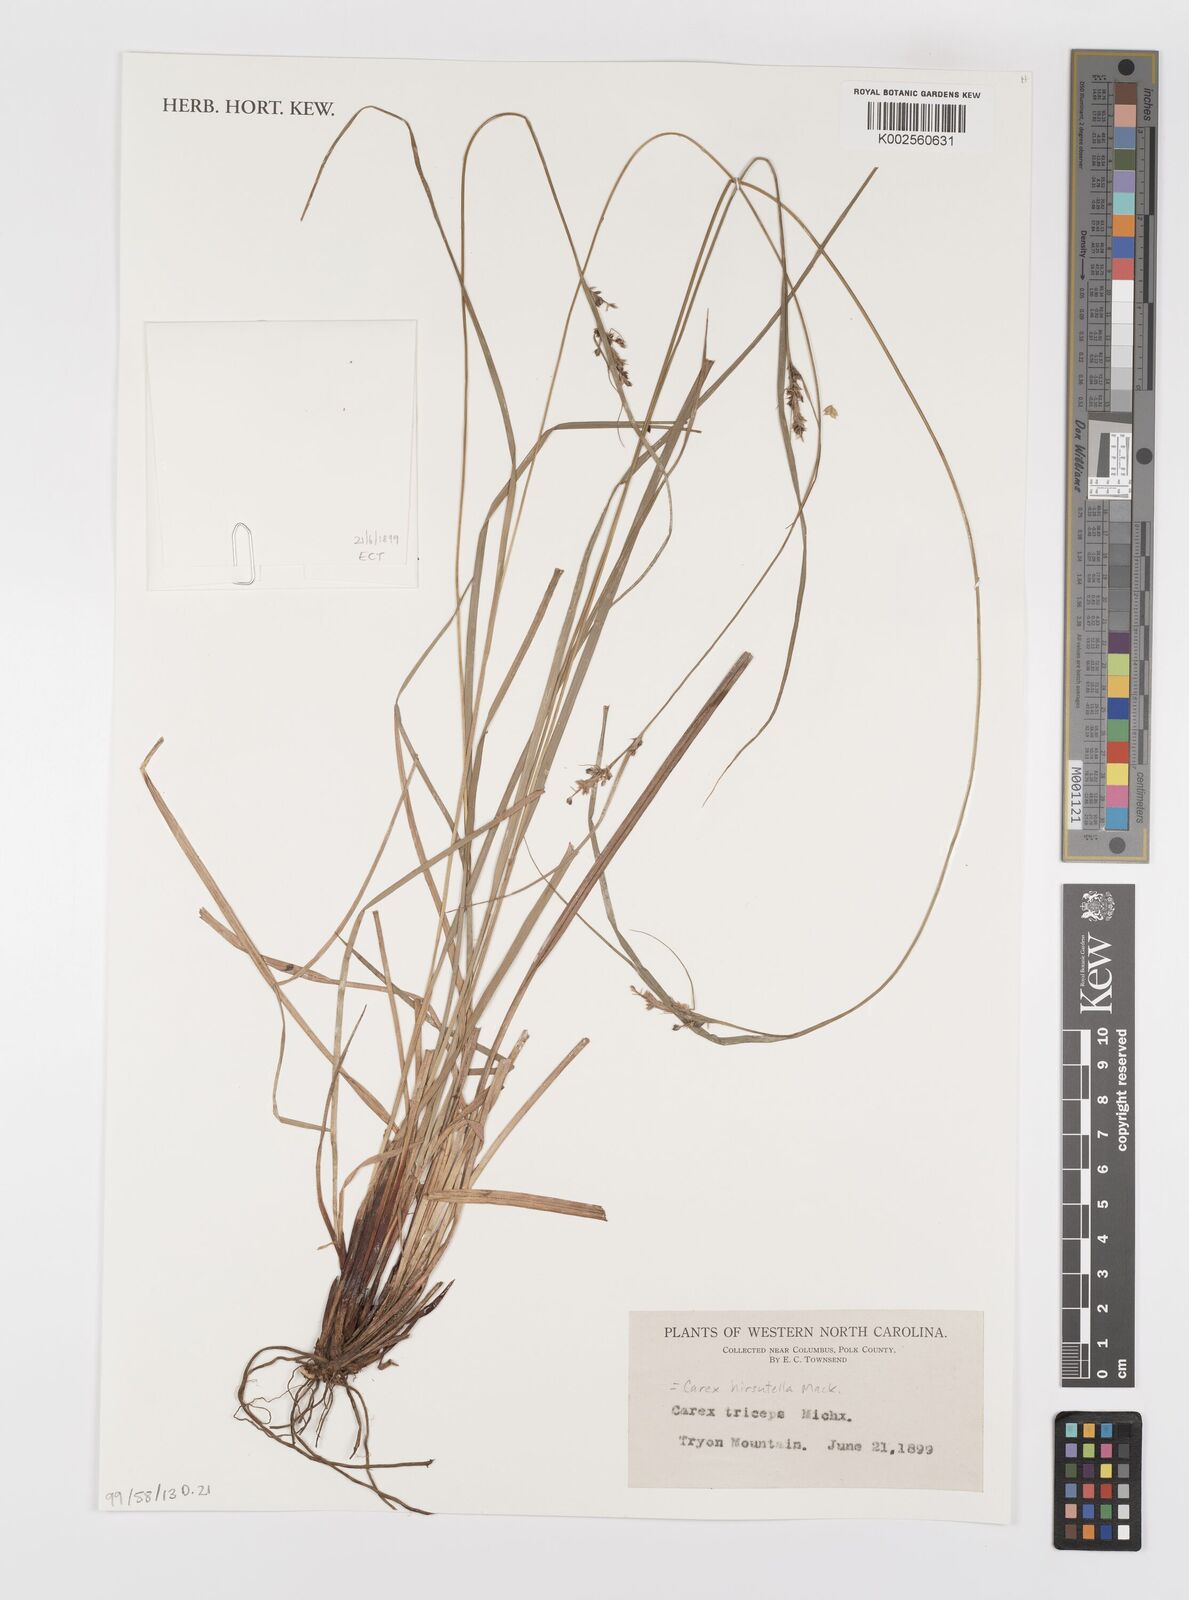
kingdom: Plantae
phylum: Tracheophyta
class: Liliopsida
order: Poales
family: Cyperaceae
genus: Carex
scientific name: Carex hirsutella
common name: Fuzzy wuzzy sedge
